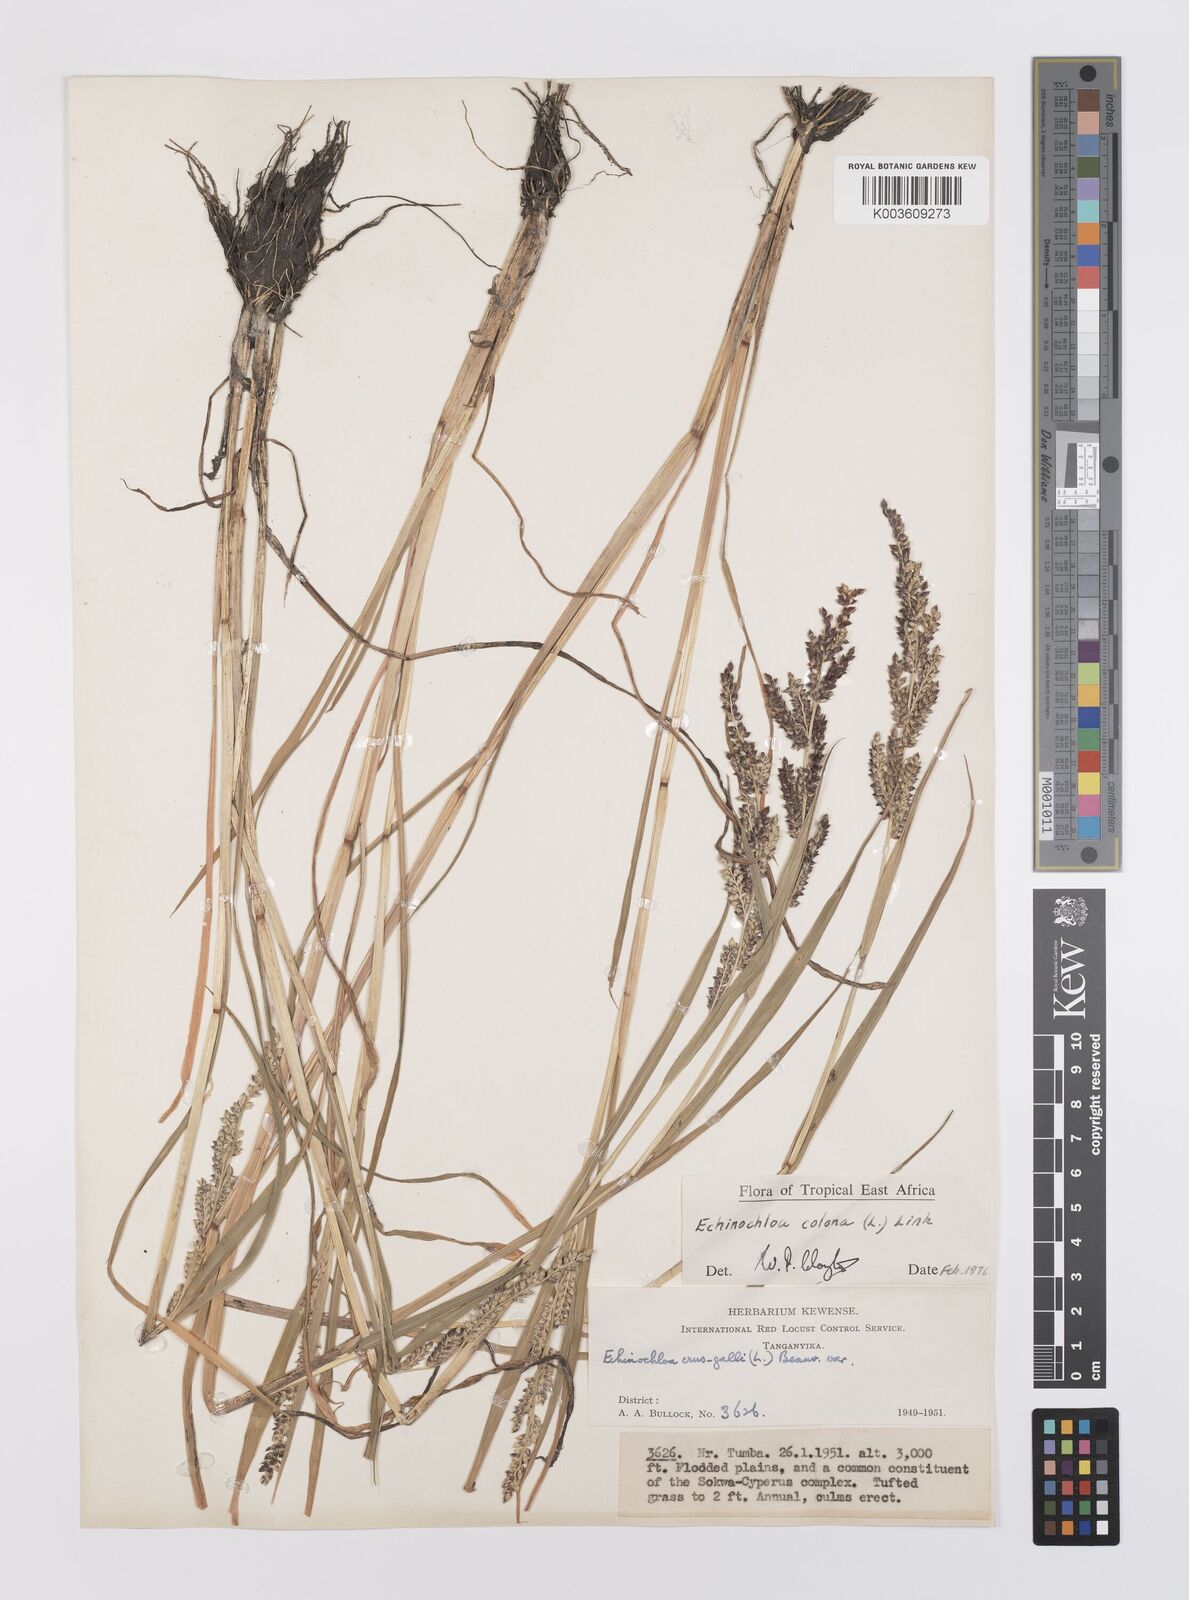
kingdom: Plantae
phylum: Tracheophyta
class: Liliopsida
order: Poales
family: Poaceae
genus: Echinochloa
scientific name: Echinochloa colonum
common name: Jungle rice
